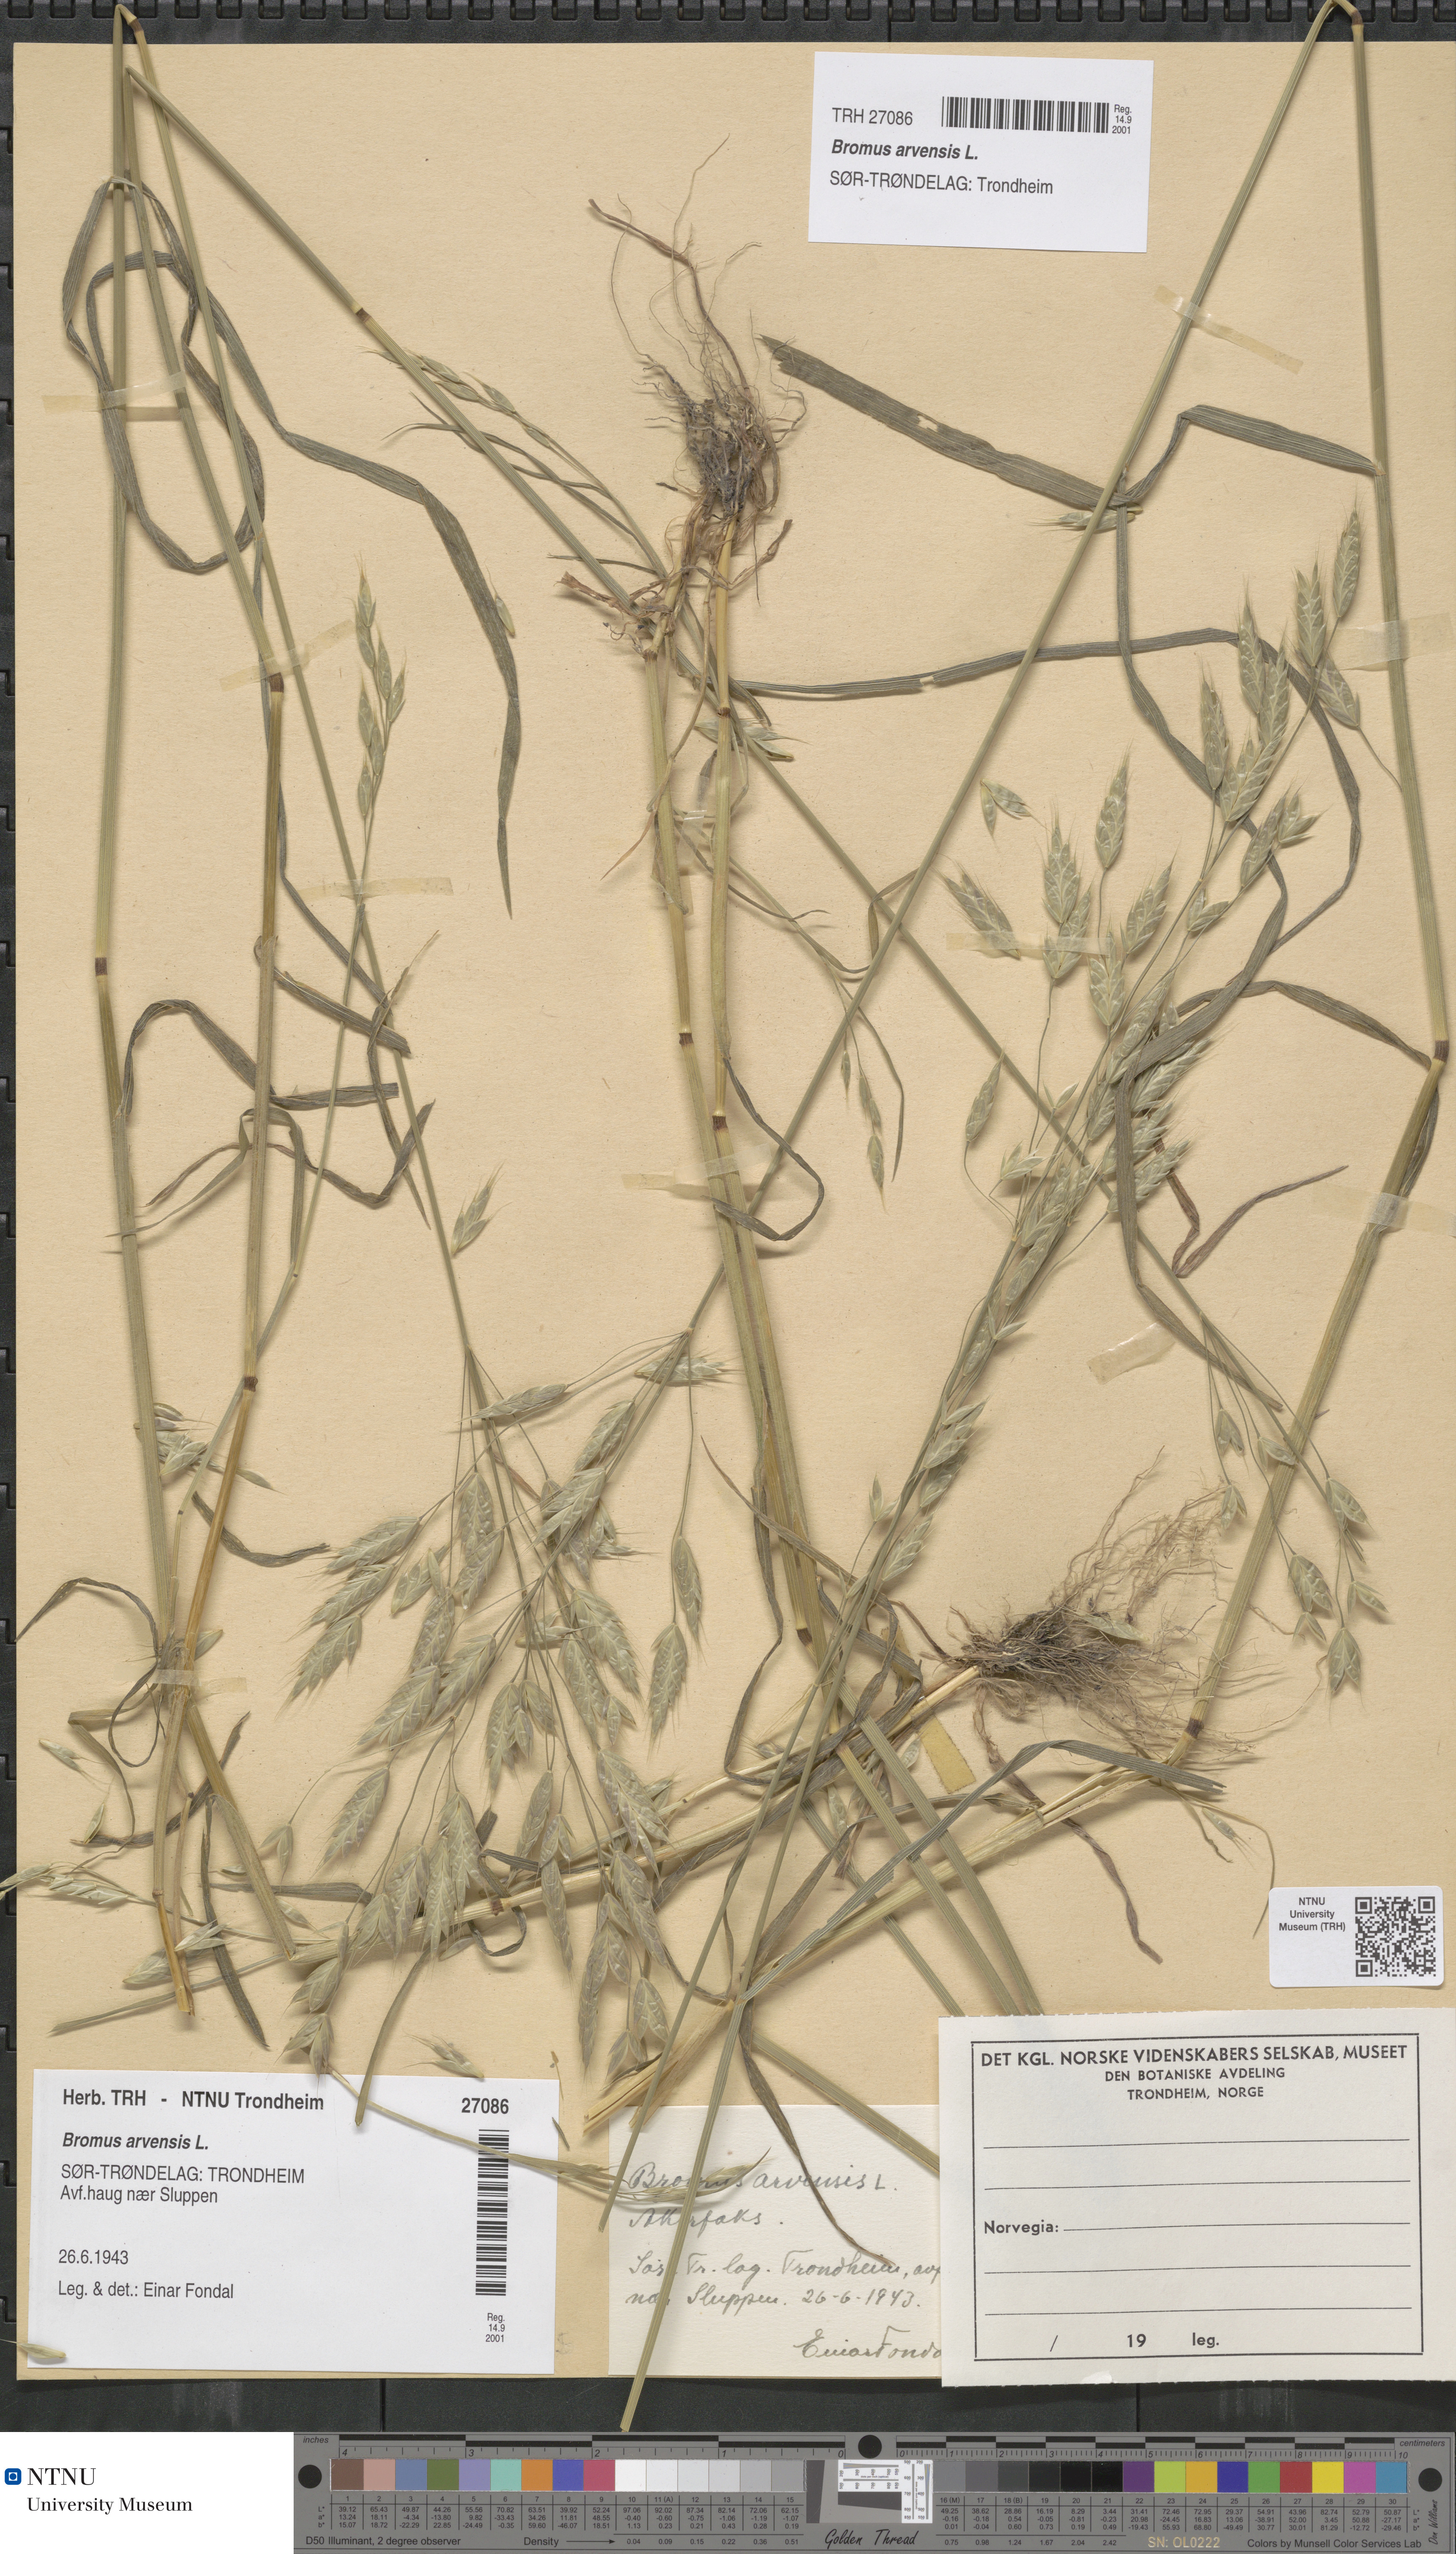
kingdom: Plantae
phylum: Tracheophyta
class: Liliopsida
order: Poales
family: Poaceae
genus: Bromus
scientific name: Bromus arvensis
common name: Field brome
